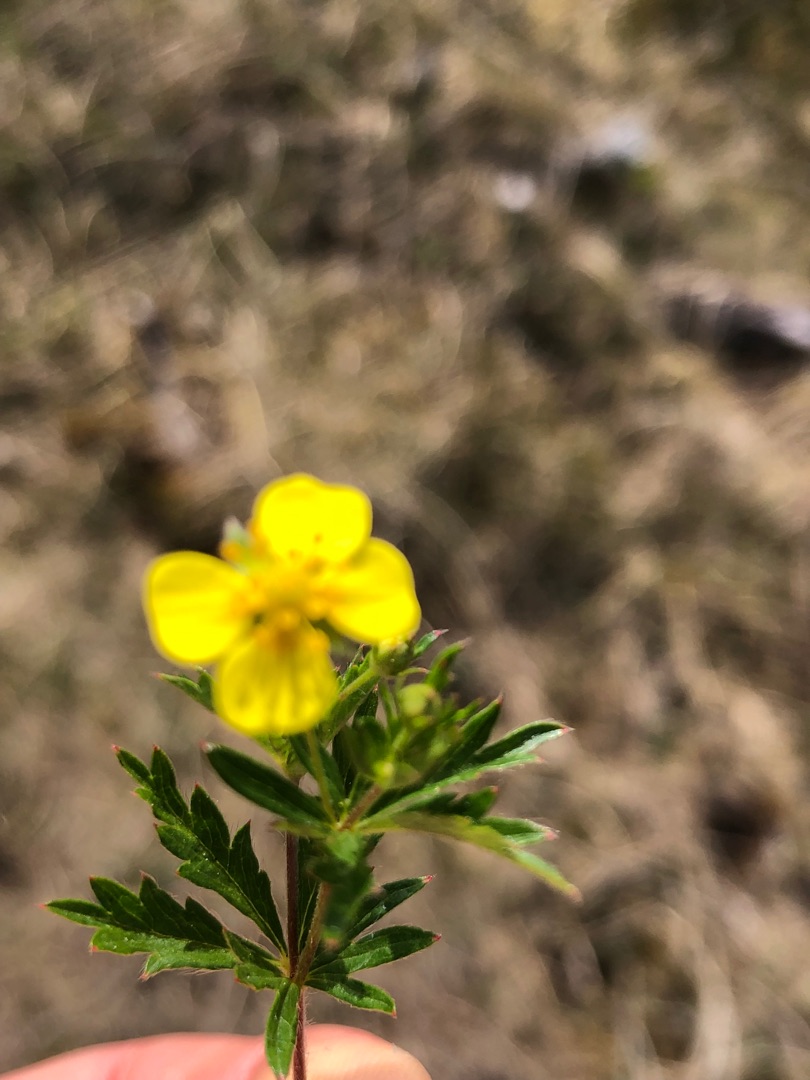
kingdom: Plantae
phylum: Tracheophyta
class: Magnoliopsida
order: Rosales
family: Rosaceae
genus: Potentilla
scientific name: Potentilla erecta
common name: Tormentil
